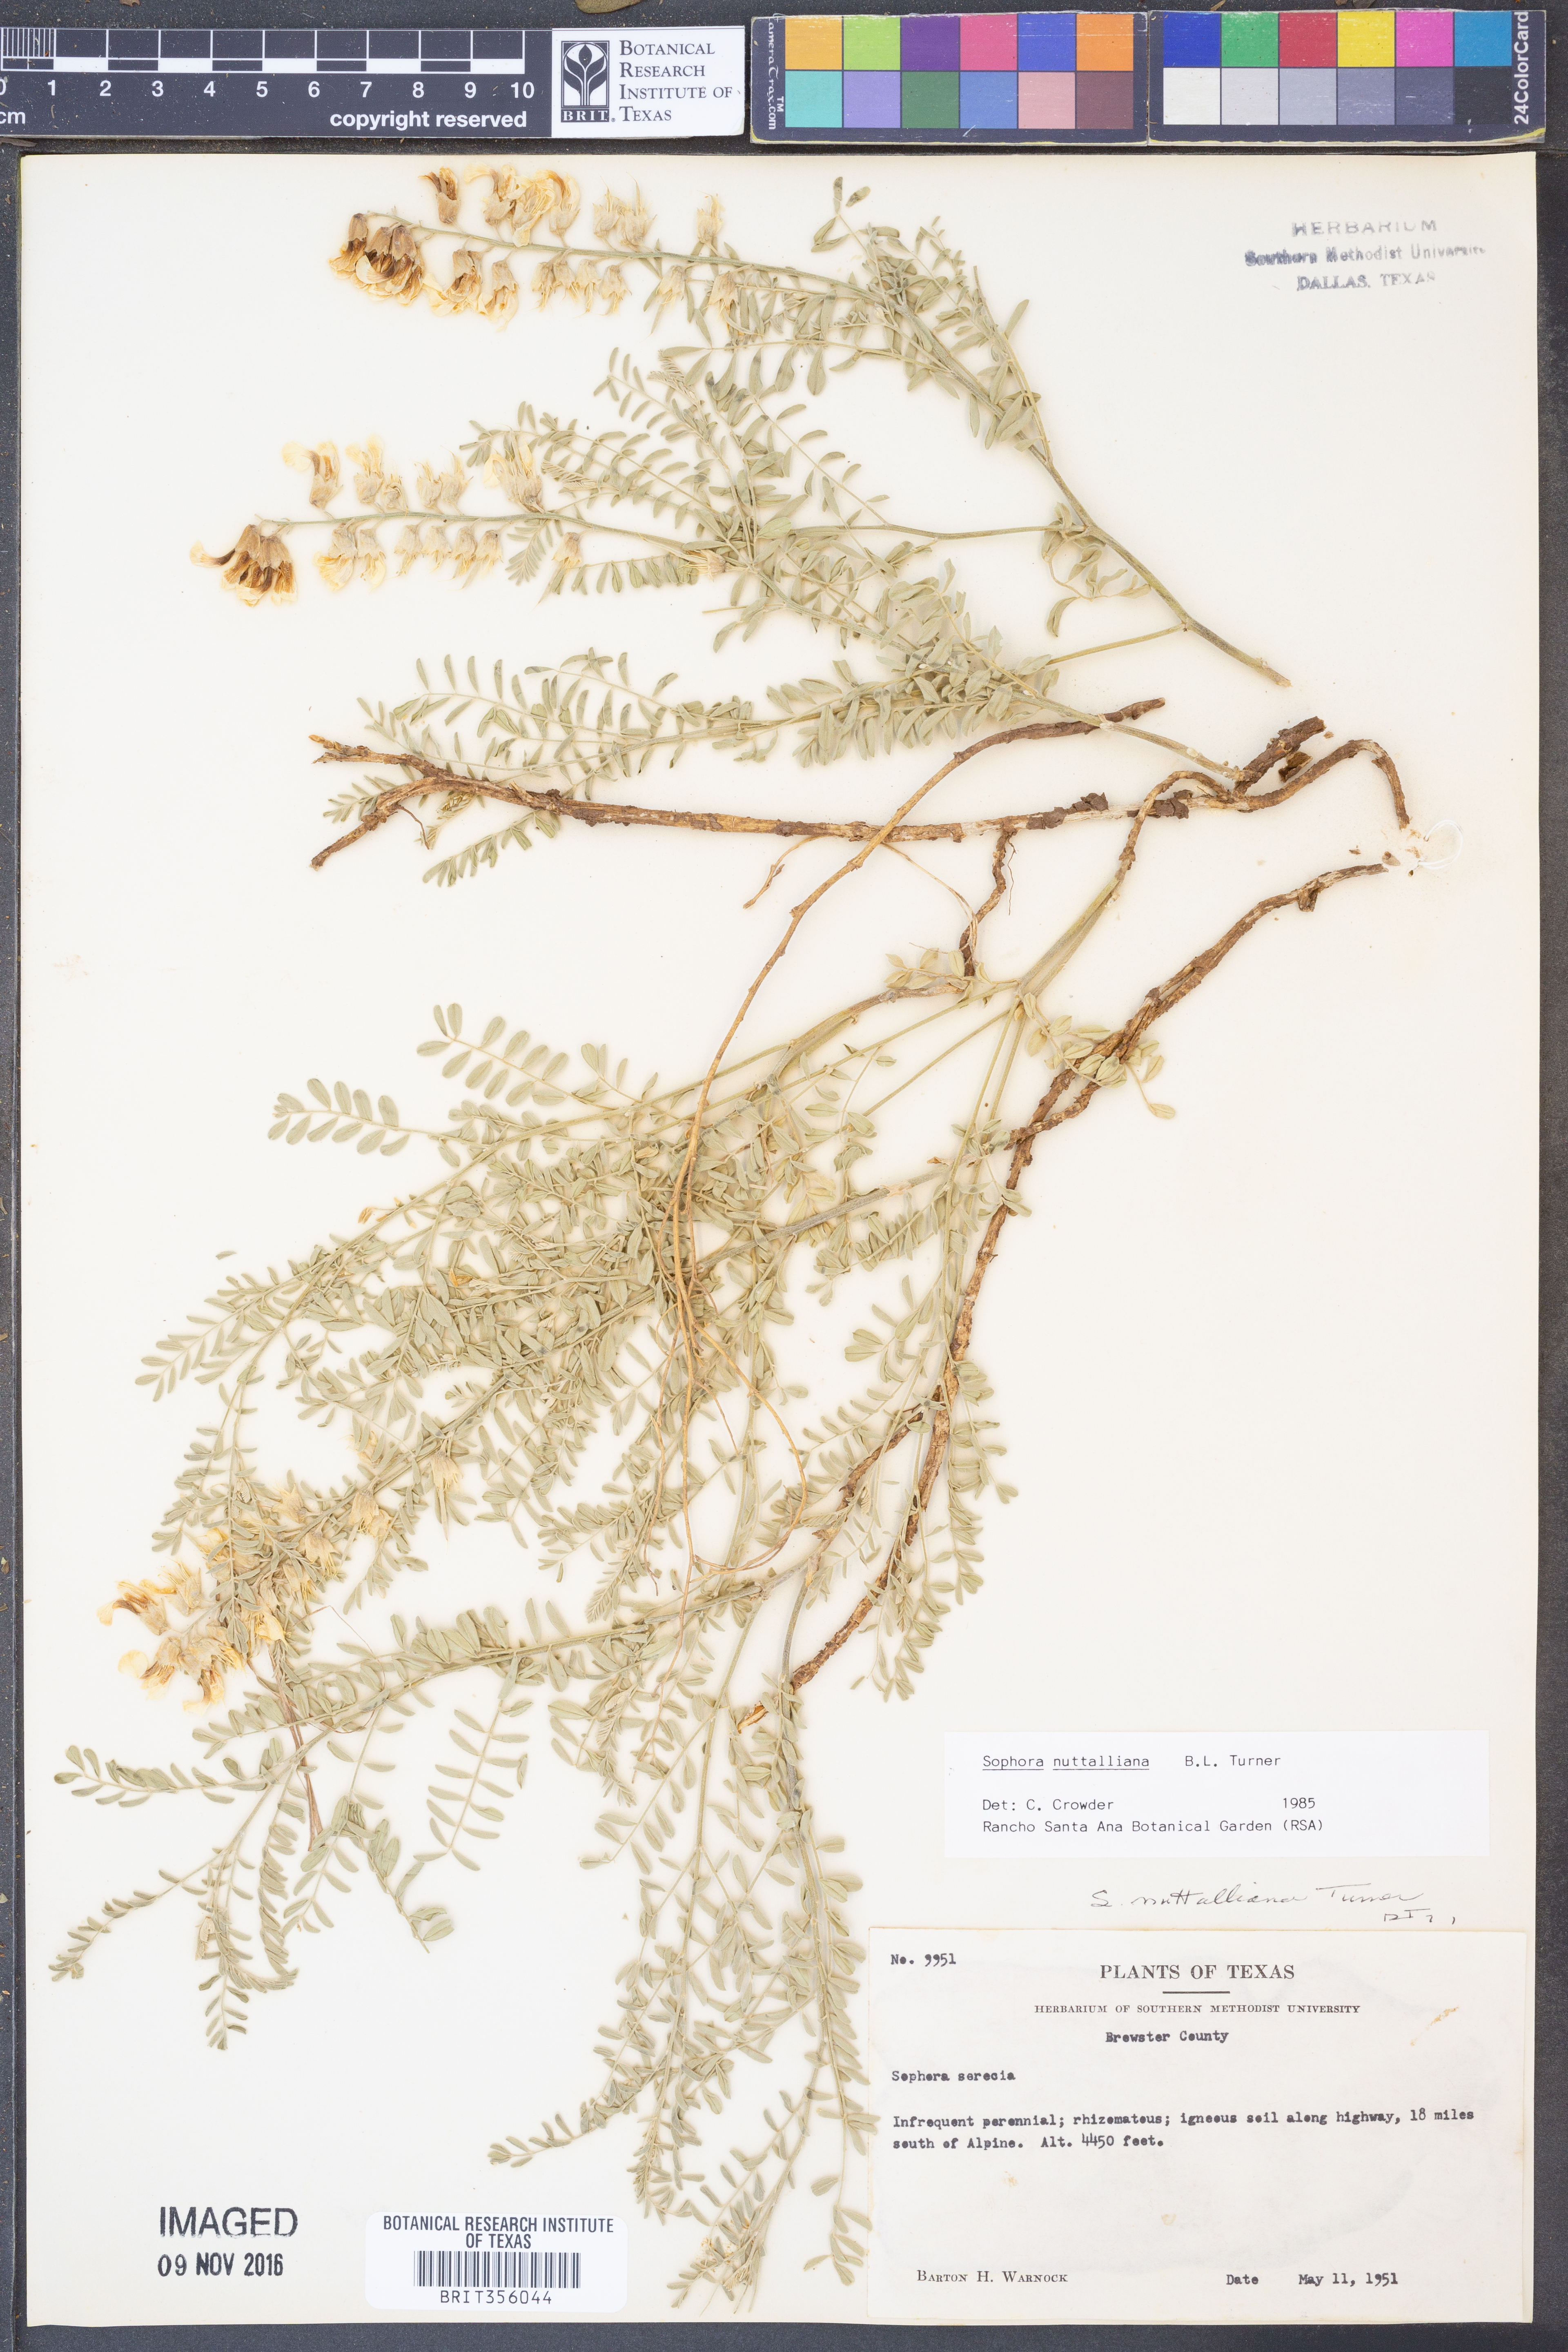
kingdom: Plantae
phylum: Tracheophyta
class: Magnoliopsida
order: Fabales
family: Fabaceae
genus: Sophora
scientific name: Sophora nuttalliana
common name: Silky sophora
